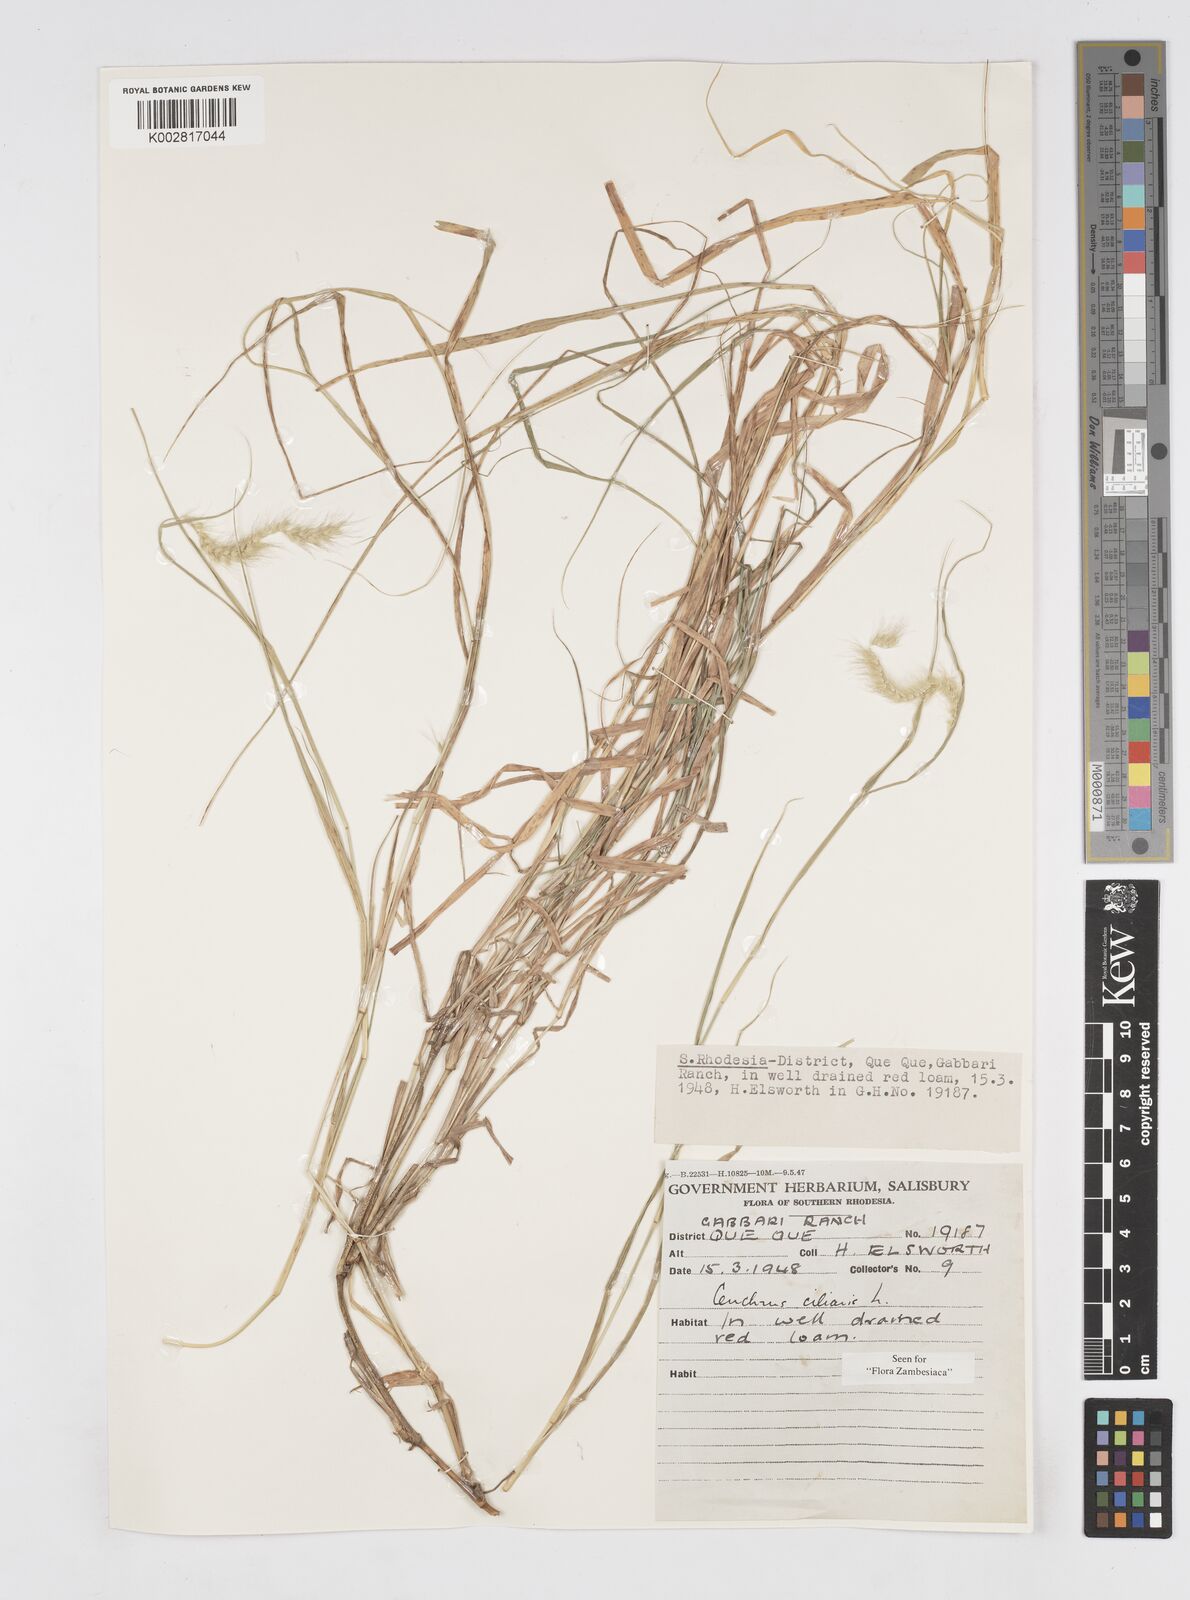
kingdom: Plantae
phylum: Tracheophyta
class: Liliopsida
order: Poales
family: Poaceae
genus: Cenchrus
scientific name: Cenchrus ciliaris
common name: Buffelgrass
